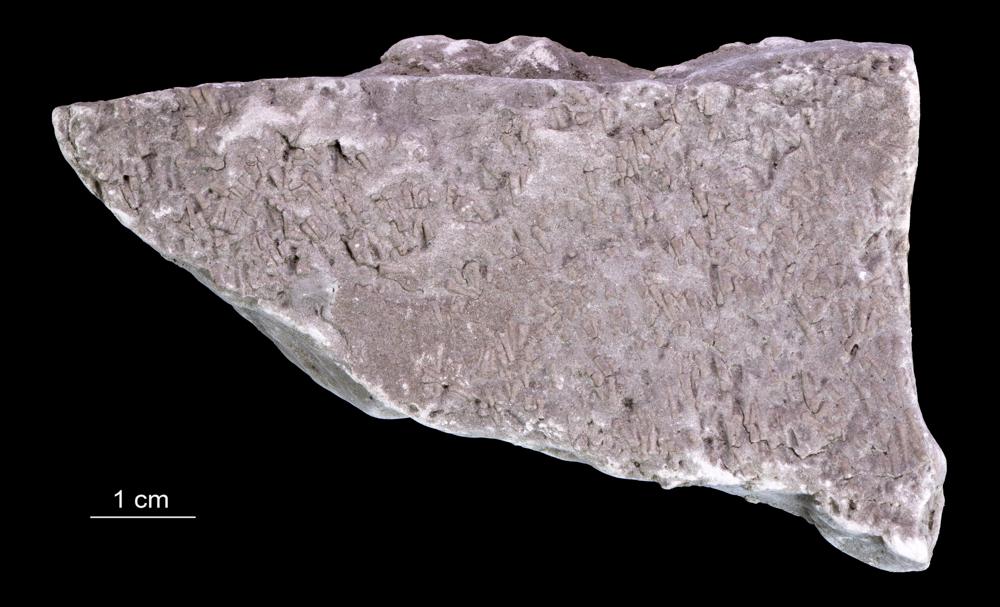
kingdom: Animalia
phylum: Annelida
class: Polychaeta
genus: Volborthella
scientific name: Volborthella tenuis
